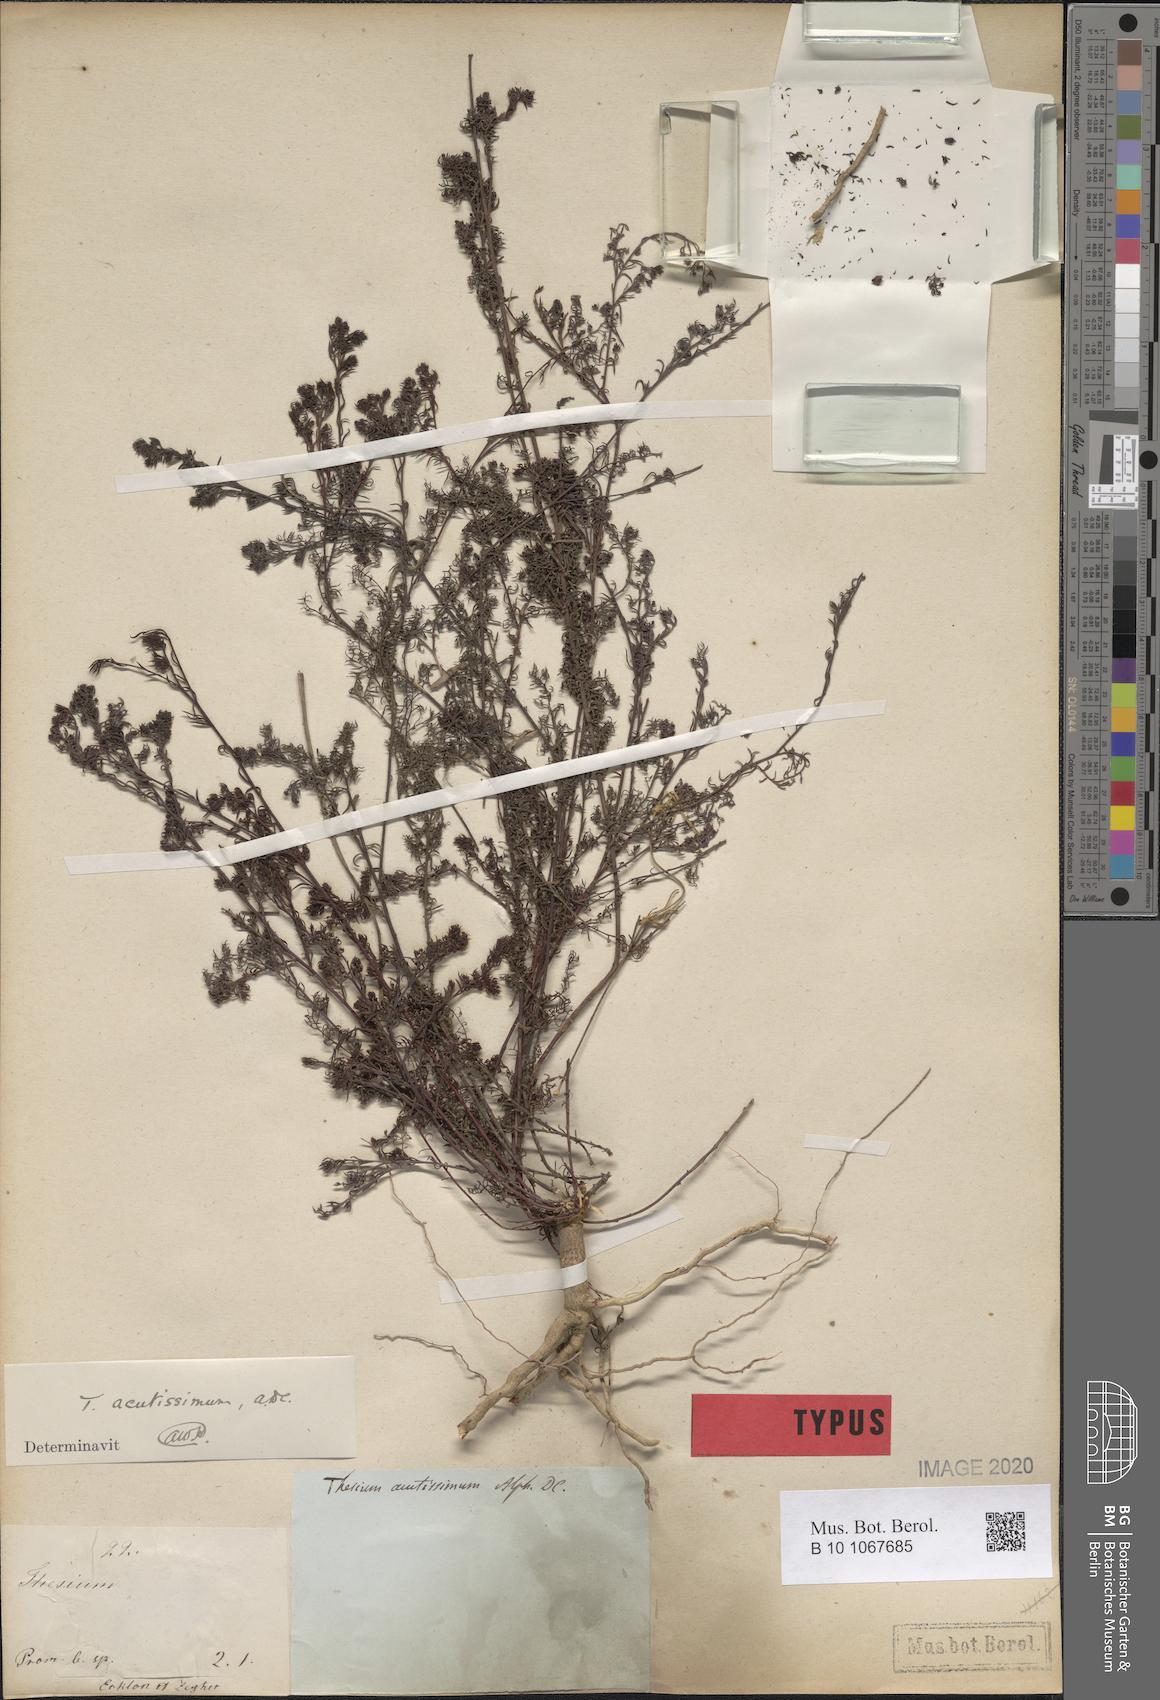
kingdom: Plantae
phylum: Tracheophyta
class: Magnoliopsida
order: Santalales
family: Thesiaceae
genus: Thesium
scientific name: Thesium acutissimum
